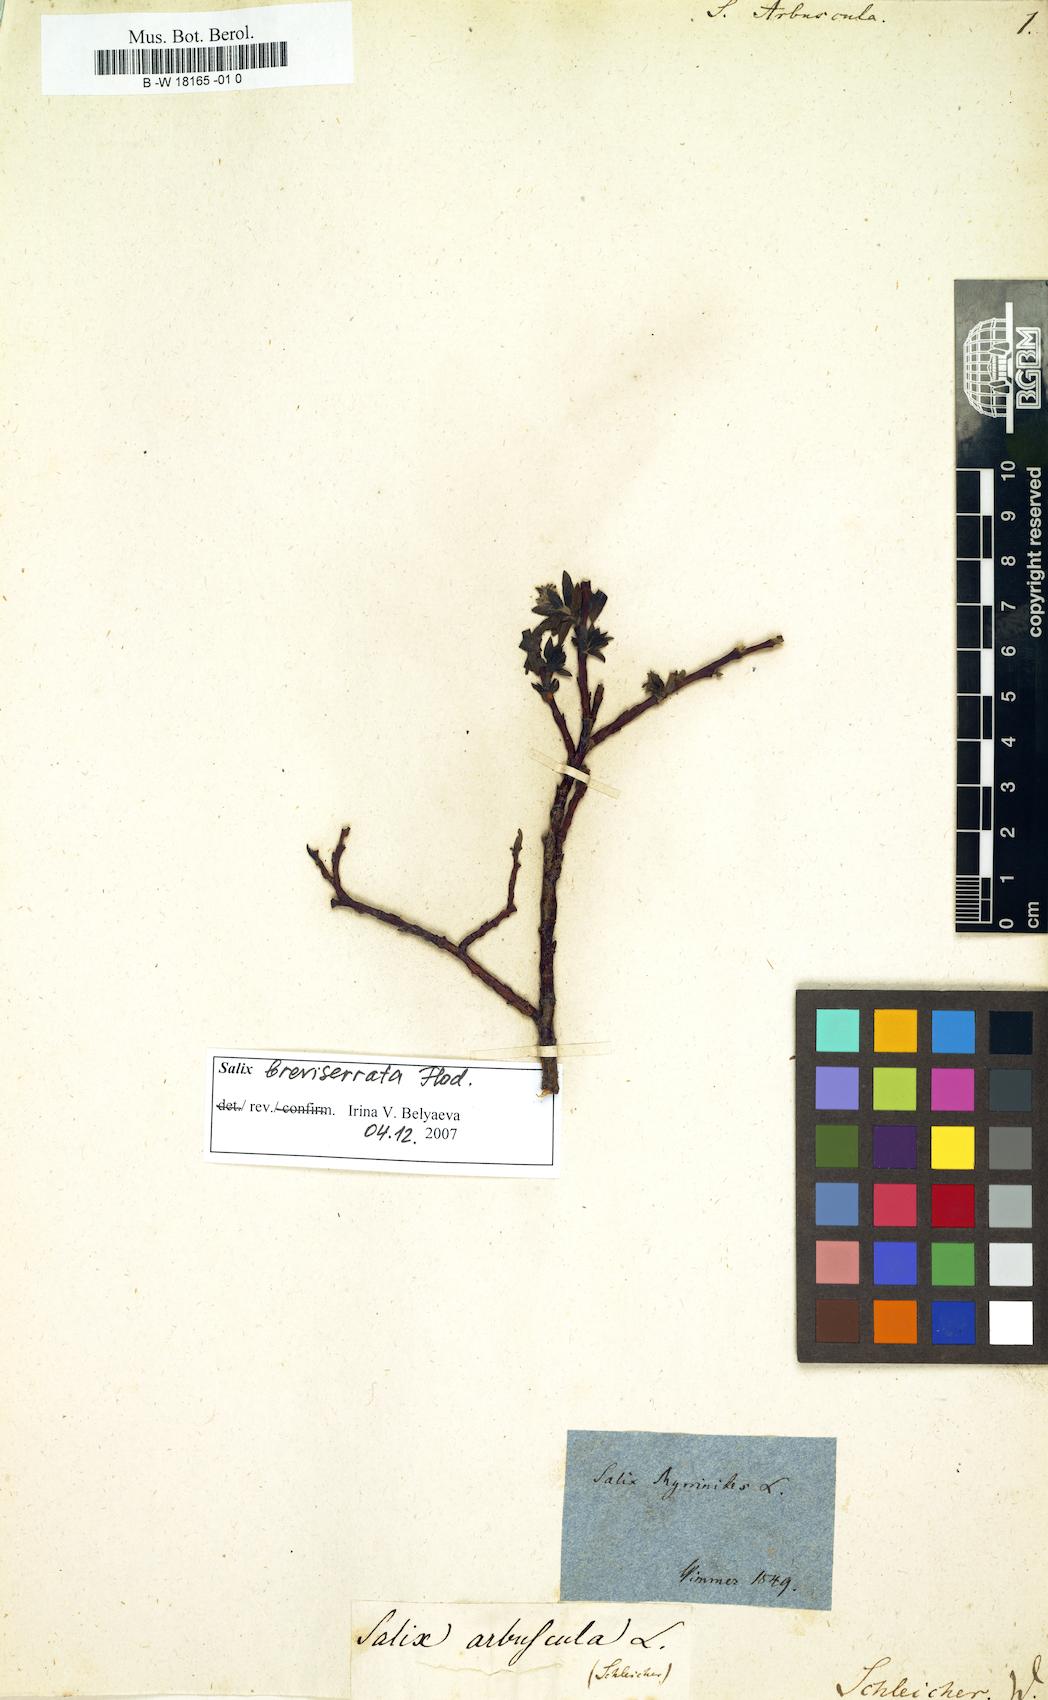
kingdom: Plantae
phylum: Tracheophyta
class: Magnoliopsida
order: Malpighiales
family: Salicaceae
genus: Salix
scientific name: Salix arbuscula
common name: Mountain willow
